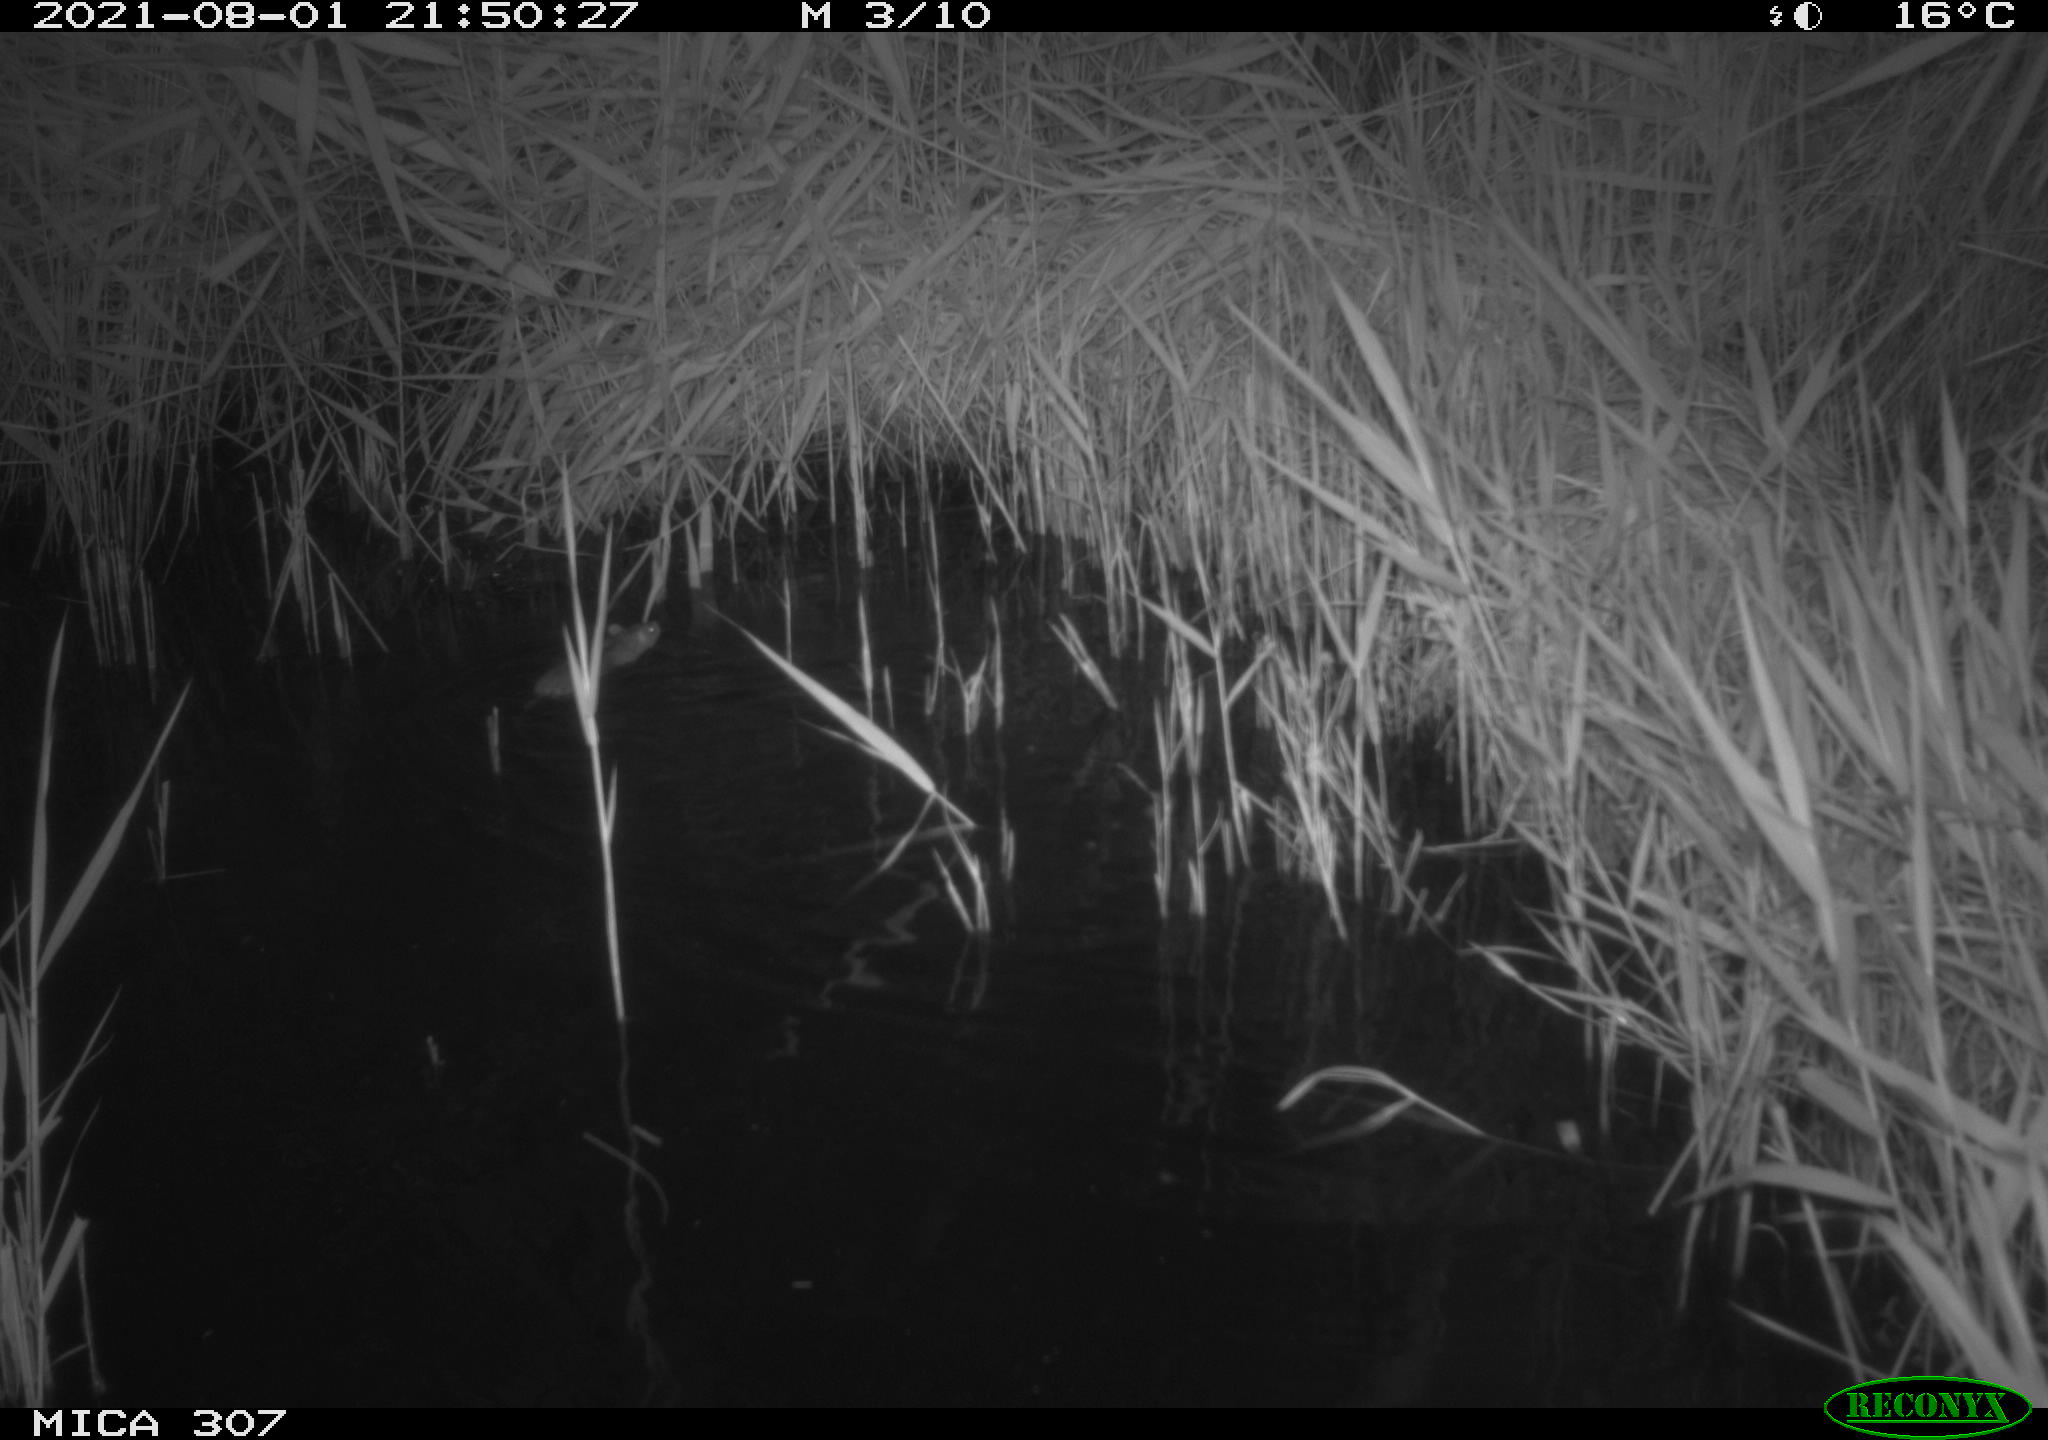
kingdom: Animalia
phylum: Chordata
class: Mammalia
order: Rodentia
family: Muridae
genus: Rattus
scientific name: Rattus norvegicus
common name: Brown rat
